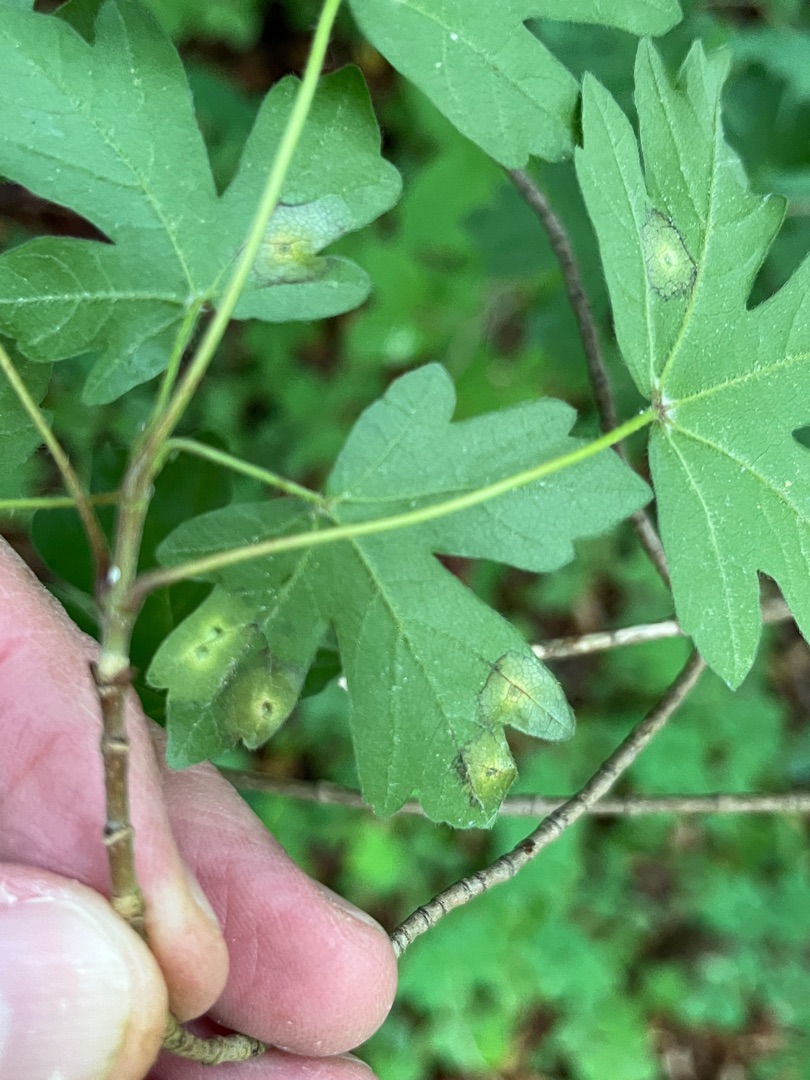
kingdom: Animalia
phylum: Arthropoda
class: Insecta
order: Diptera
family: Cecidomyiidae
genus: Acericecis
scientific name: Acericecis campestre
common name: Navrblistgalmyg
